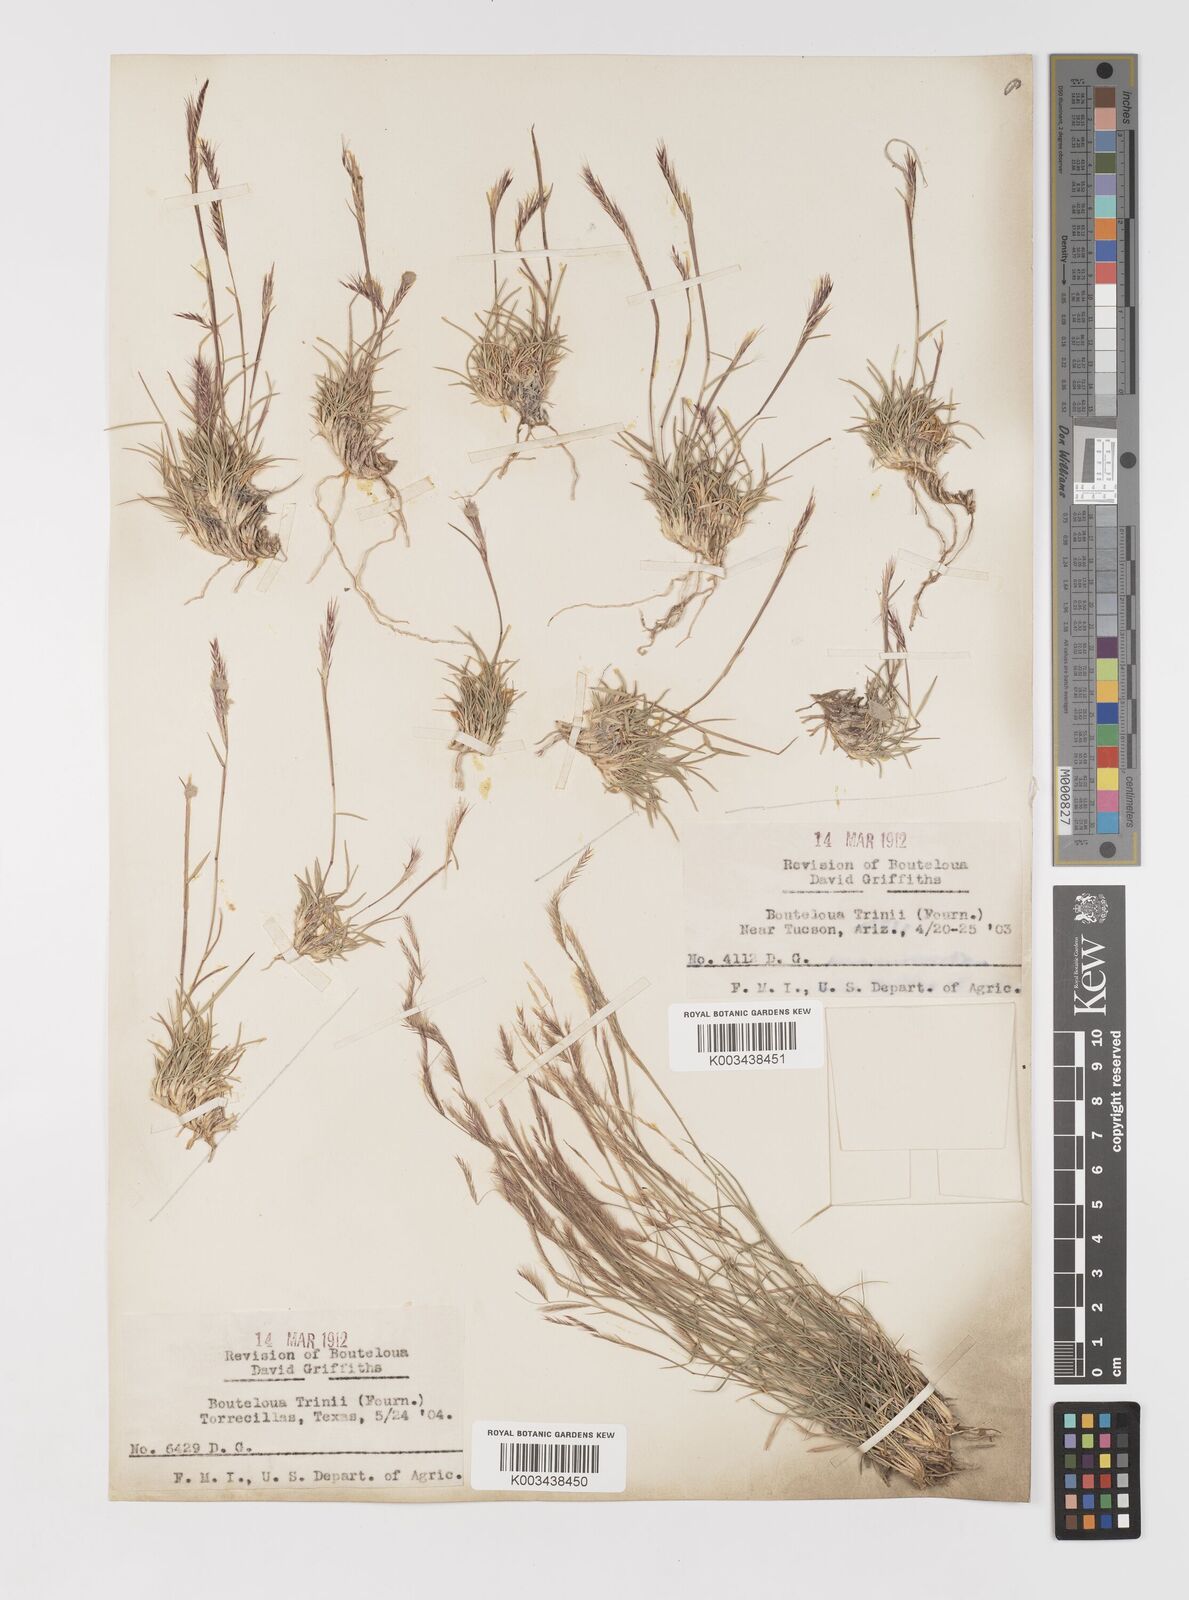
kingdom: Plantae
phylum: Tracheophyta
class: Liliopsida
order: Poales
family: Poaceae
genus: Bouteloua
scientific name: Bouteloua trifida
